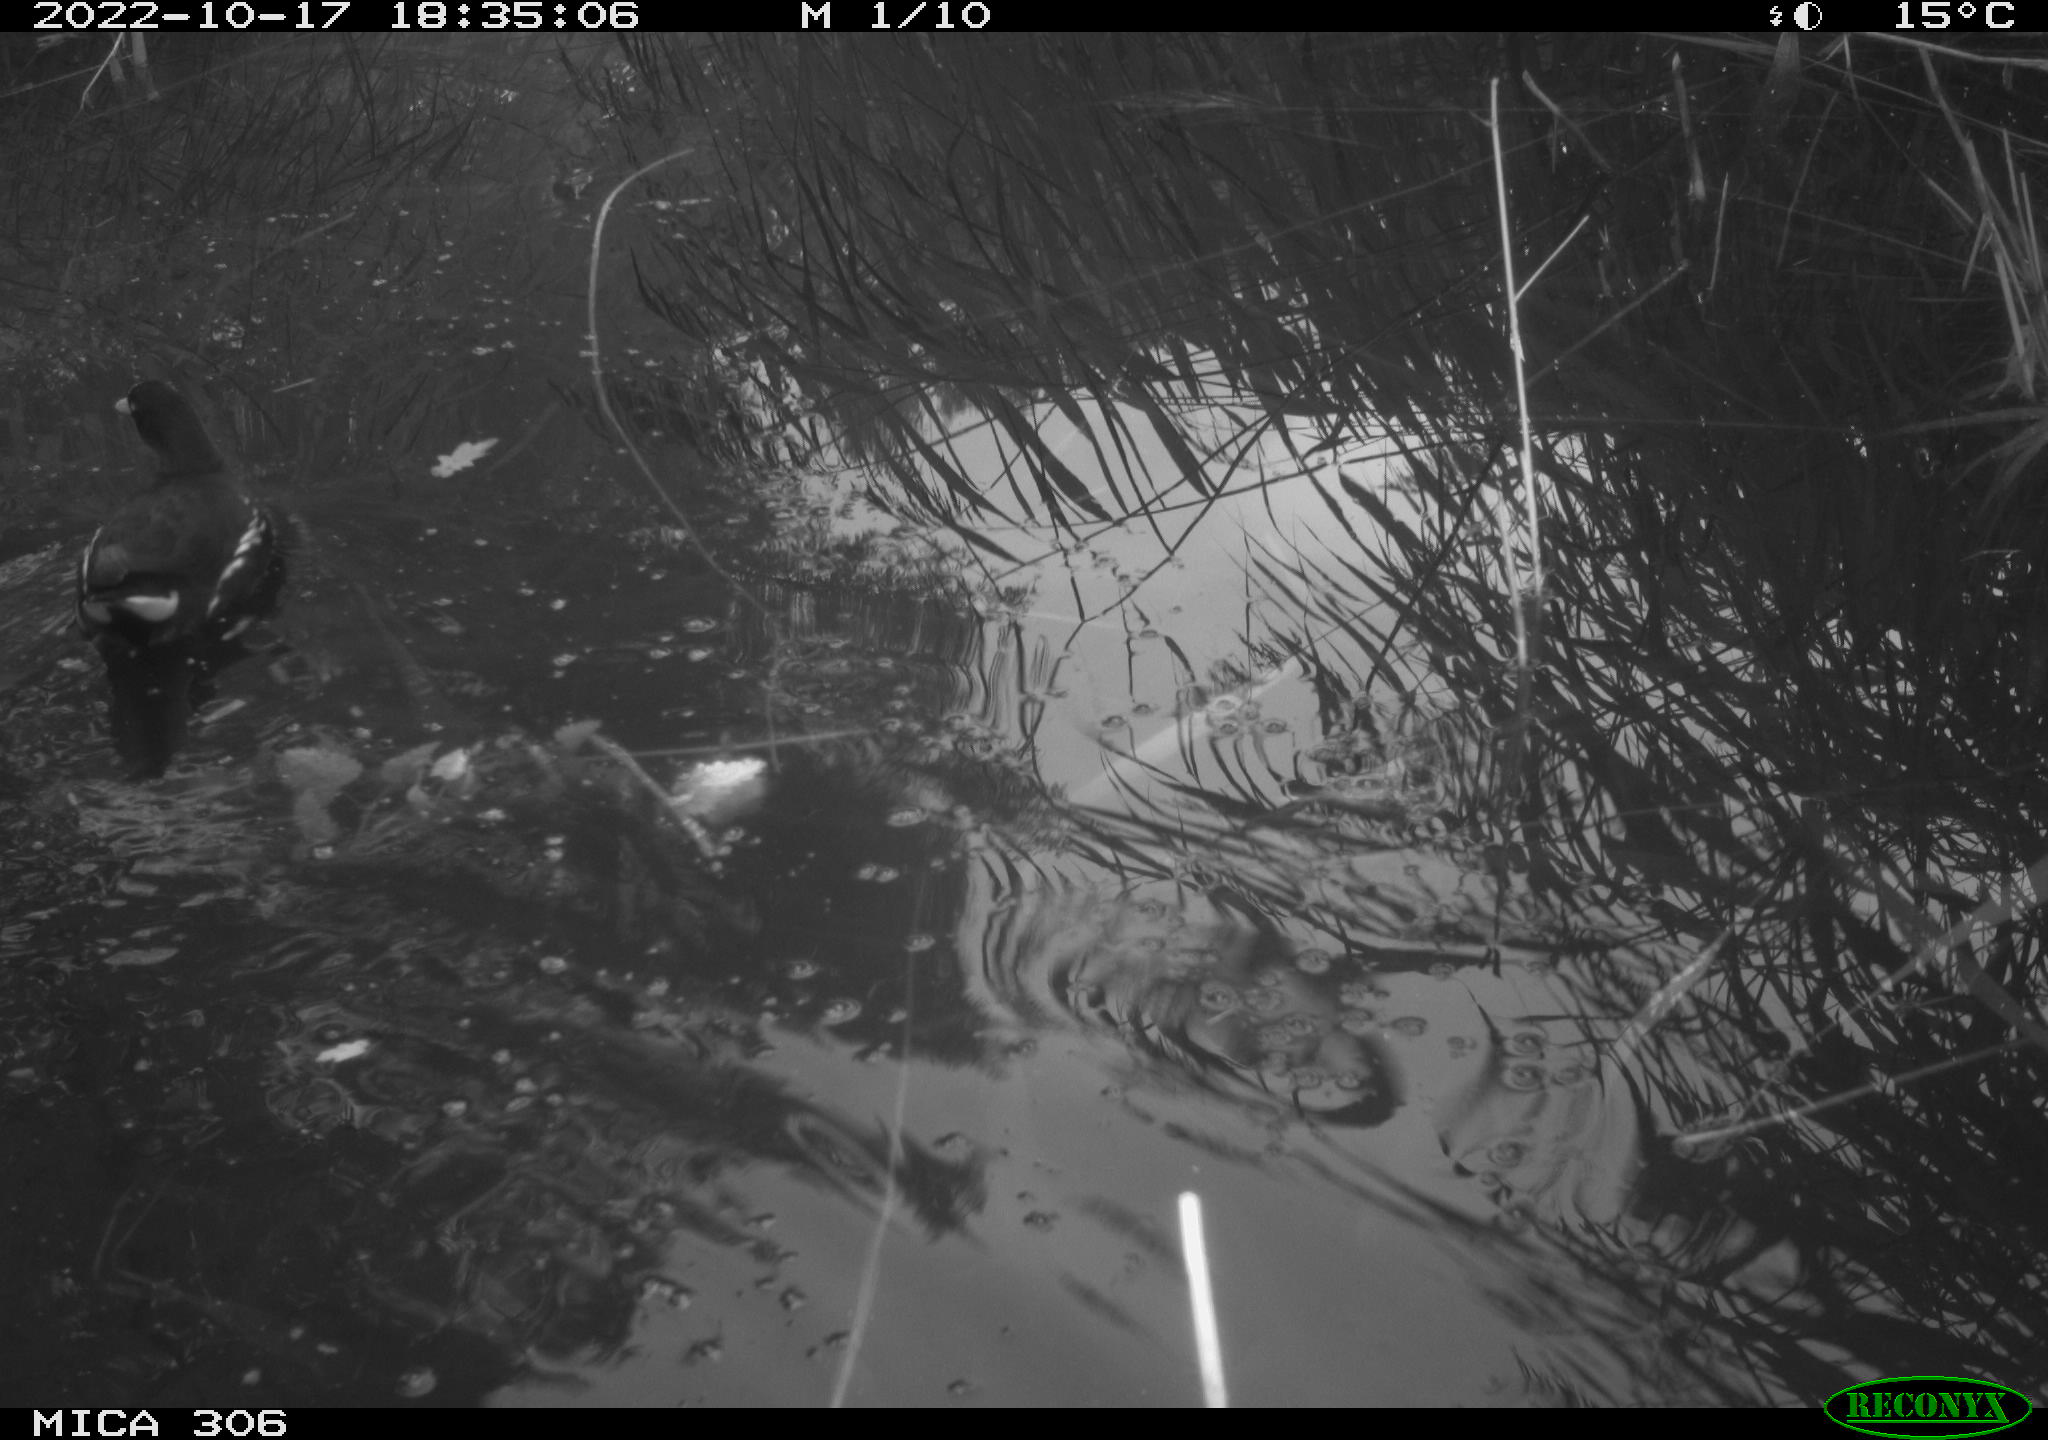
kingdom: Animalia
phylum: Chordata
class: Aves
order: Gruiformes
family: Rallidae
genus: Gallinula
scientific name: Gallinula chloropus
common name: Common moorhen
